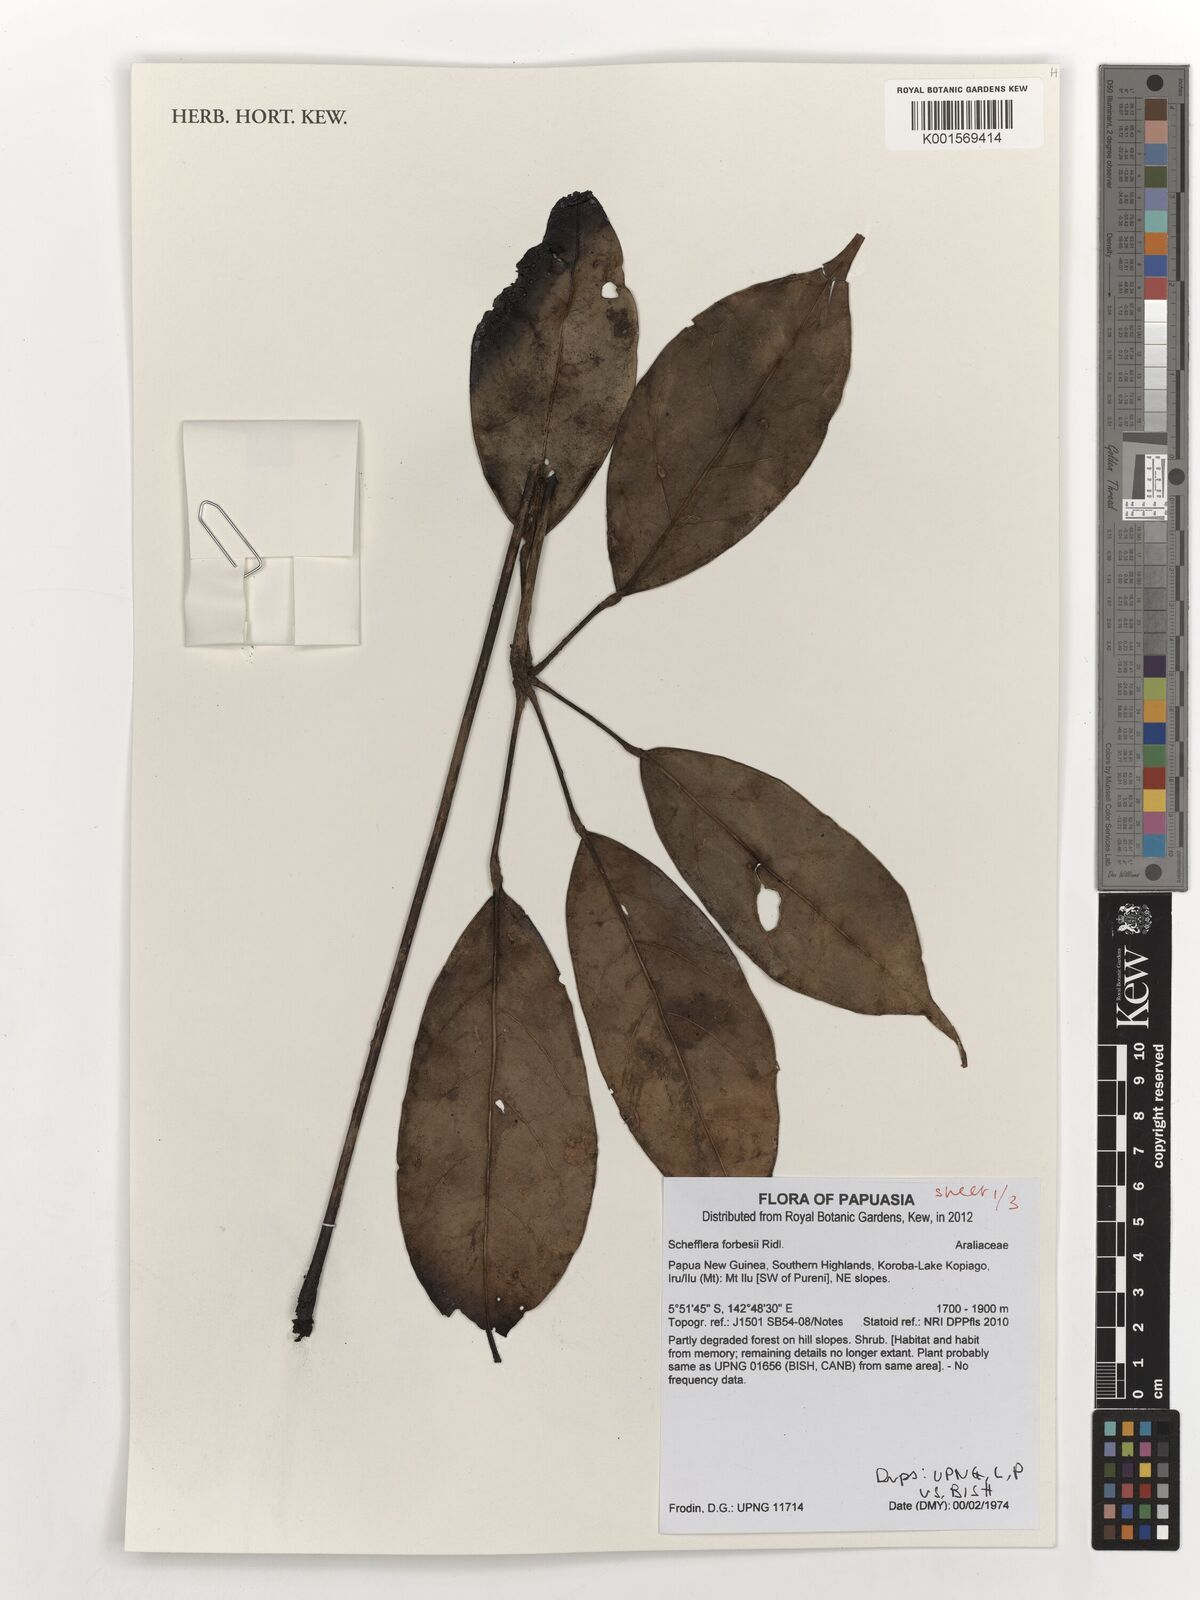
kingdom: Plantae
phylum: Tracheophyta
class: Magnoliopsida
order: Apiales
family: Araliaceae
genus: Heptapleurum
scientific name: Heptapleurum forbesii
